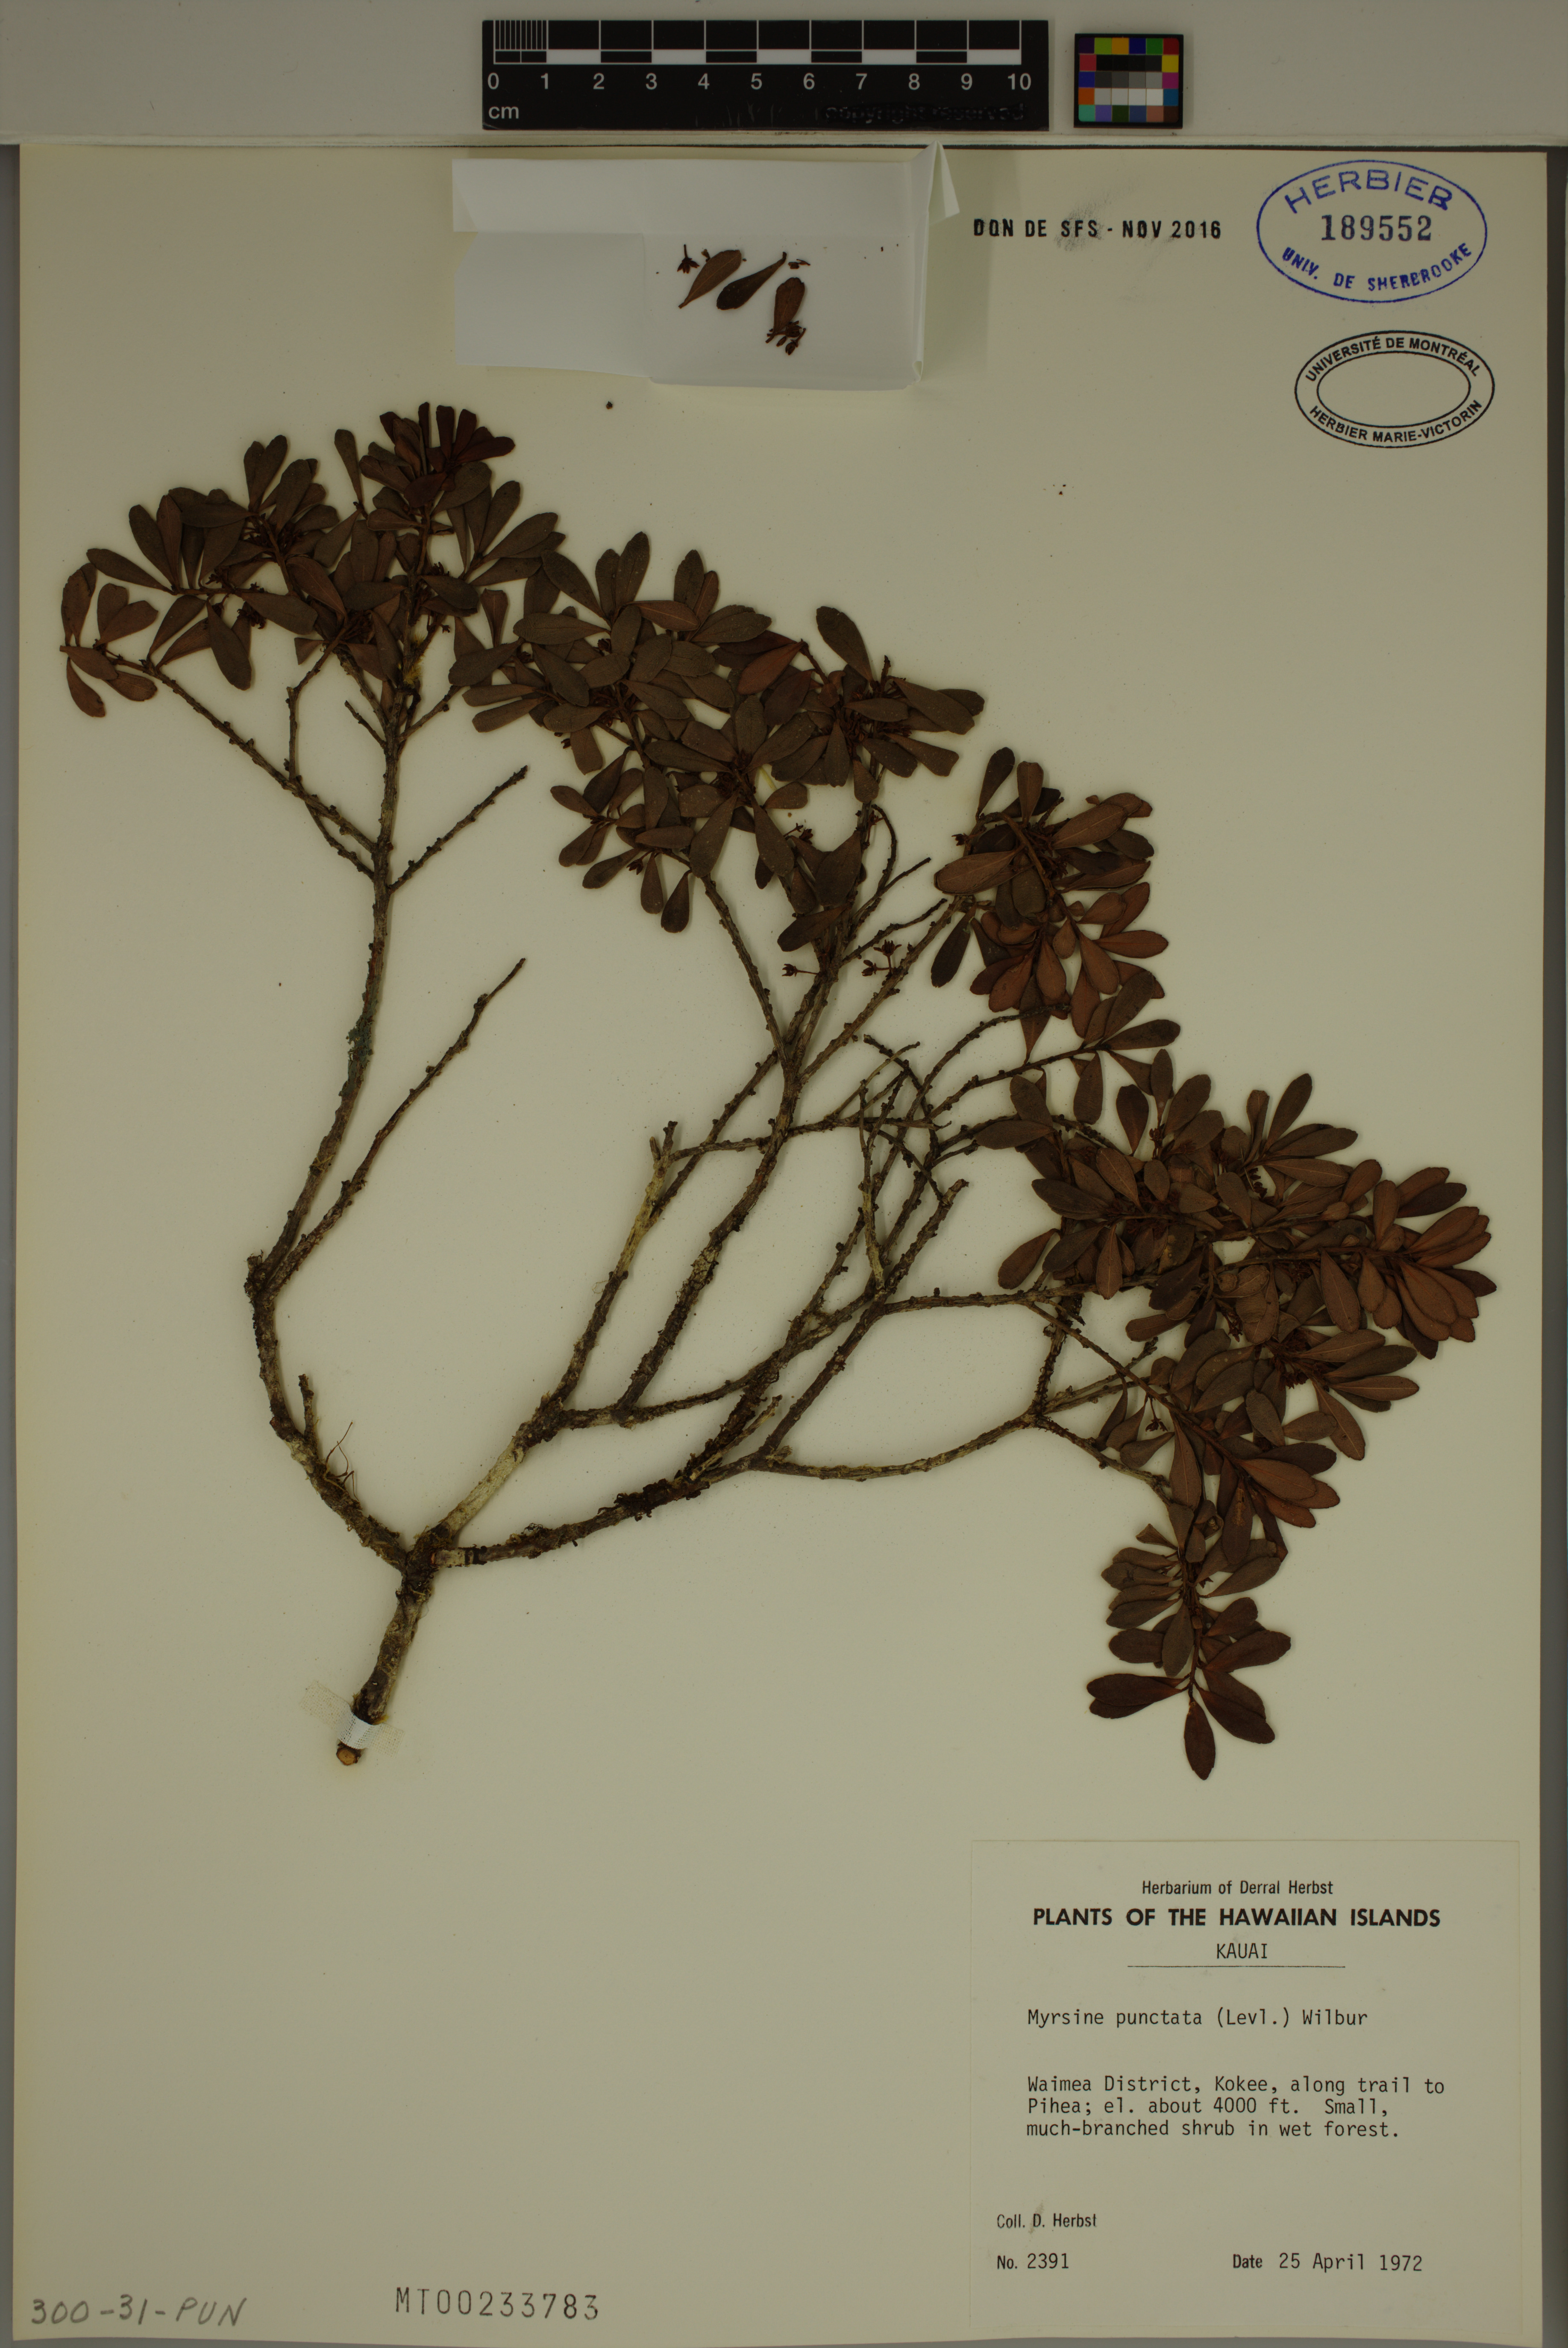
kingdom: Plantae
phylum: Tracheophyta
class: Magnoliopsida
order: Ericales
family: Primulaceae
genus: Myrsine
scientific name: Myrsine punctata
